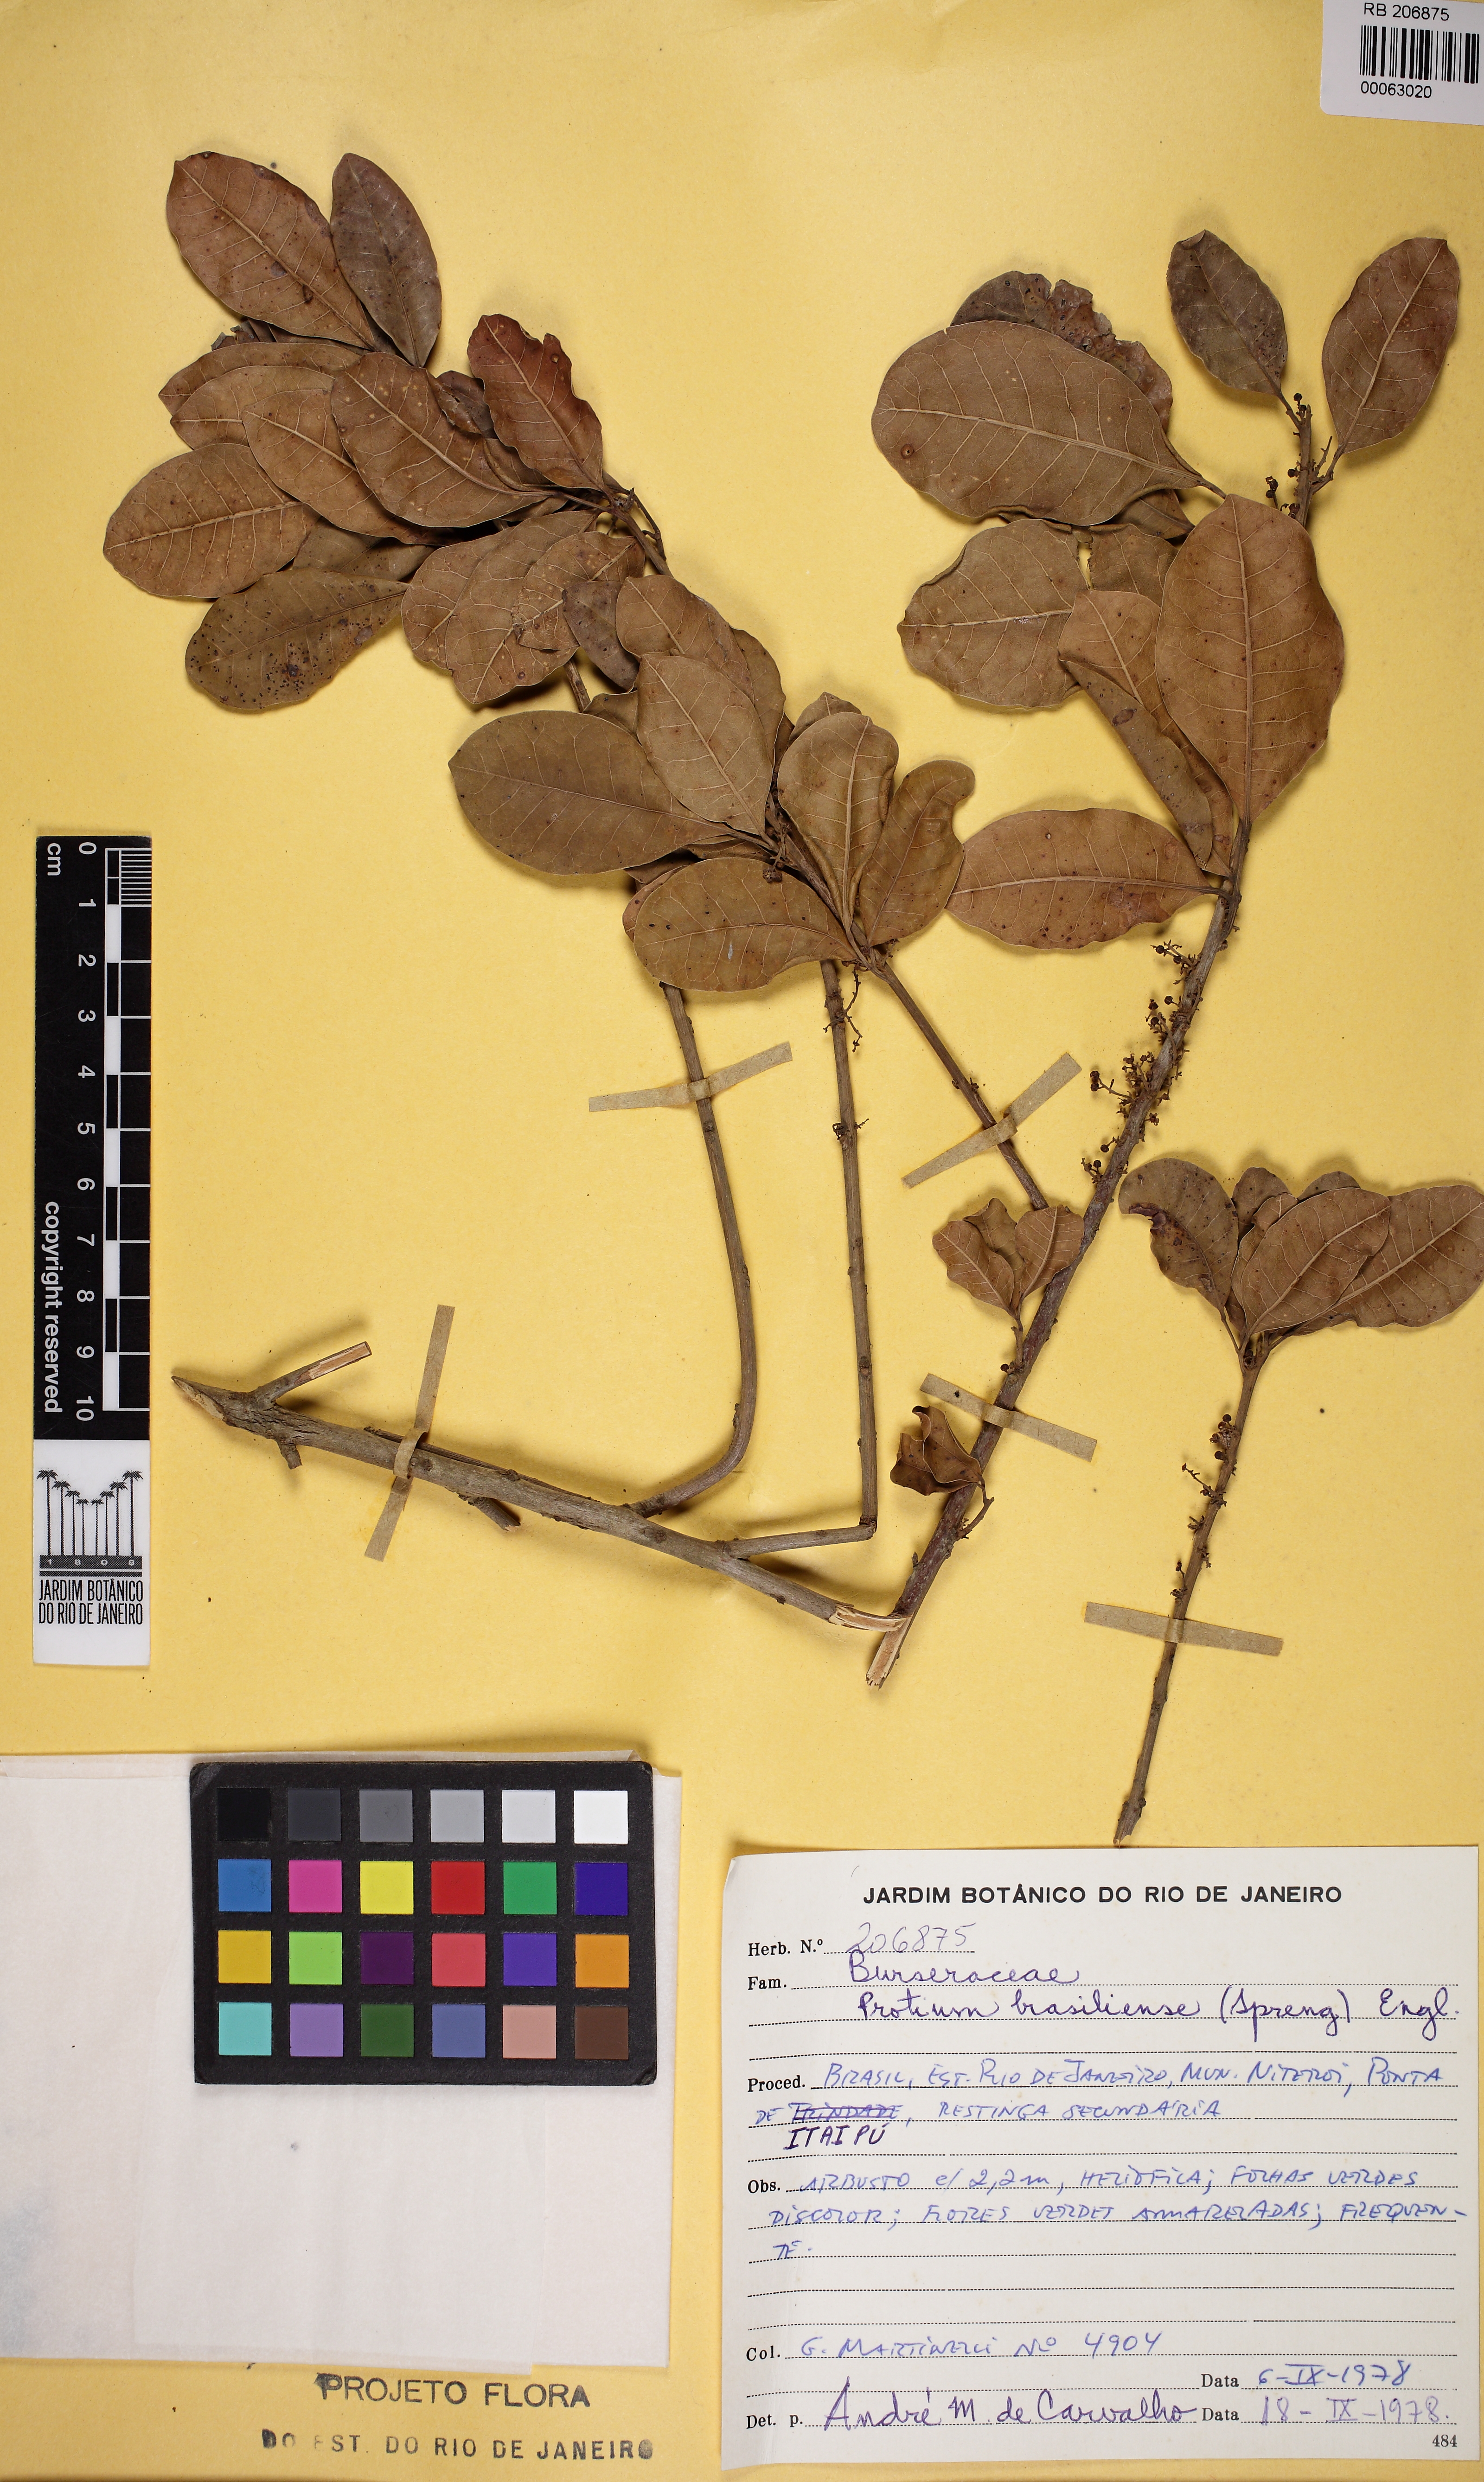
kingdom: Plantae
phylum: Tracheophyta
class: Magnoliopsida
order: Sapindales
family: Burseraceae
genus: Protium
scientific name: Protium brasiliense
